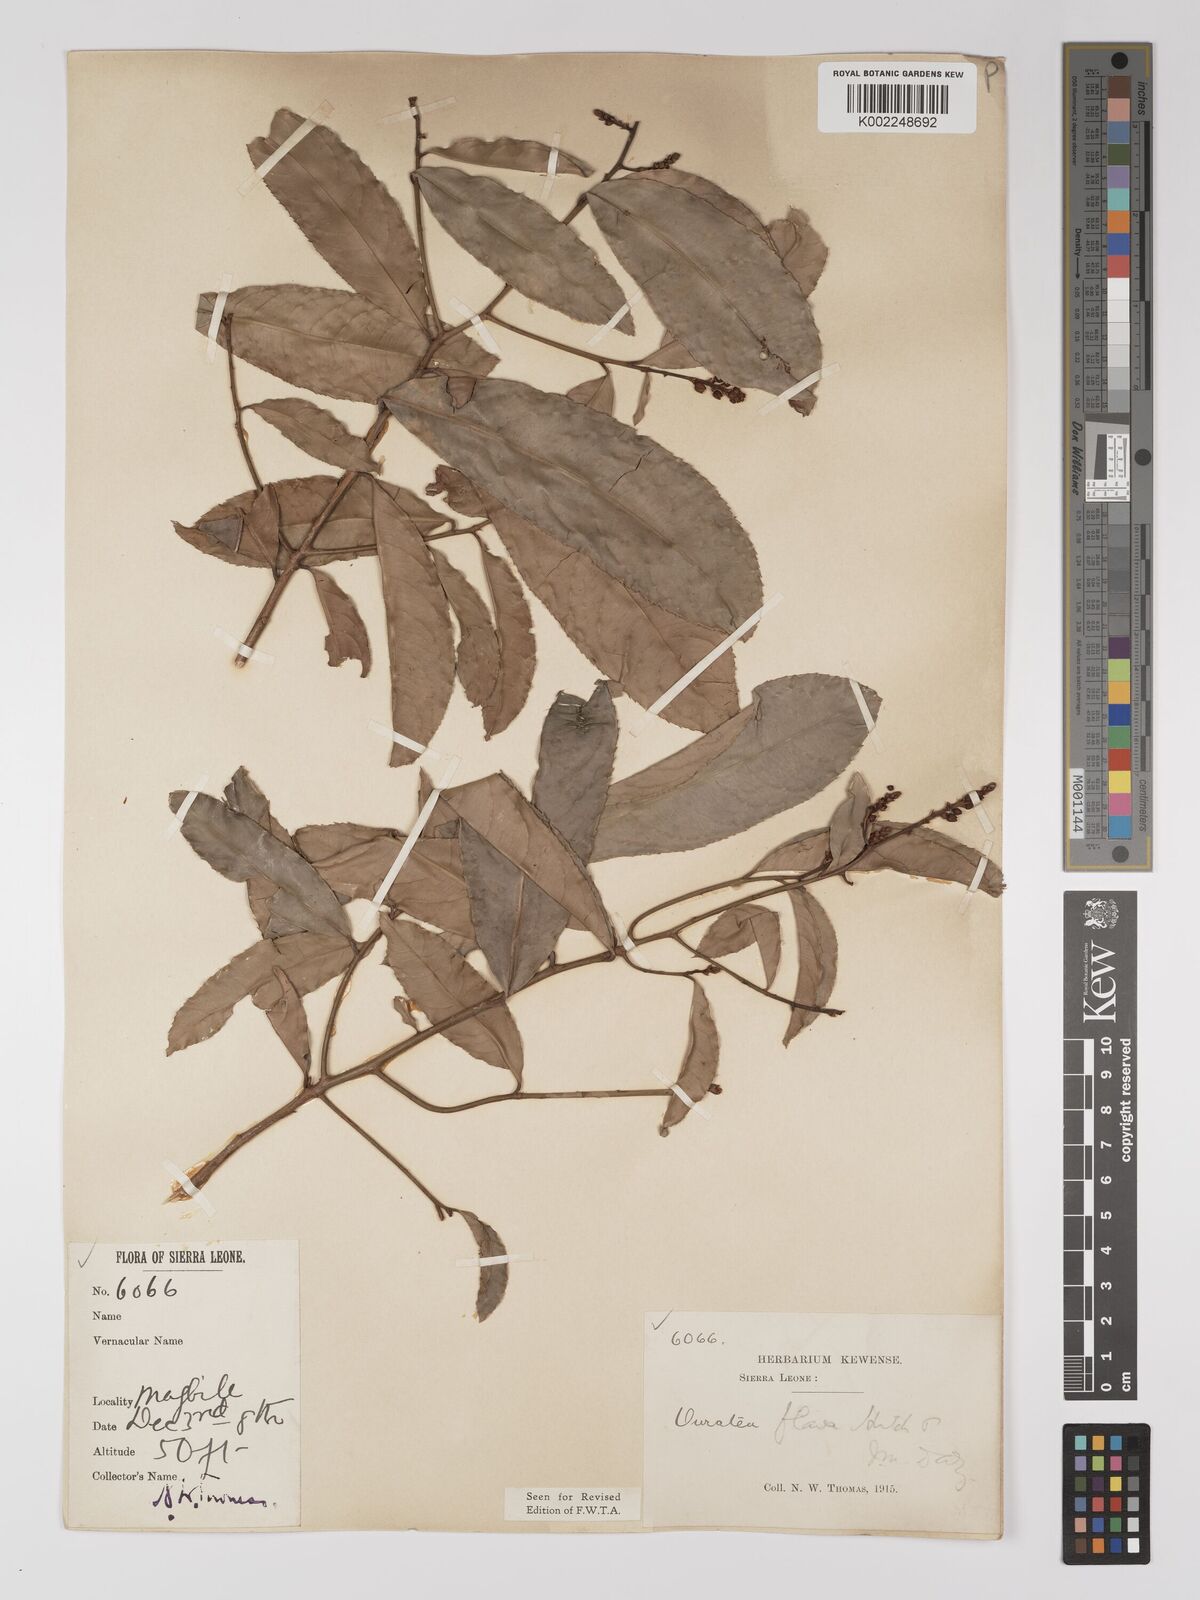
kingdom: Plantae
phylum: Tracheophyta
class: Magnoliopsida
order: Malpighiales
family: Ochnaceae
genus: Campylospermum
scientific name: Campylospermum flavum
